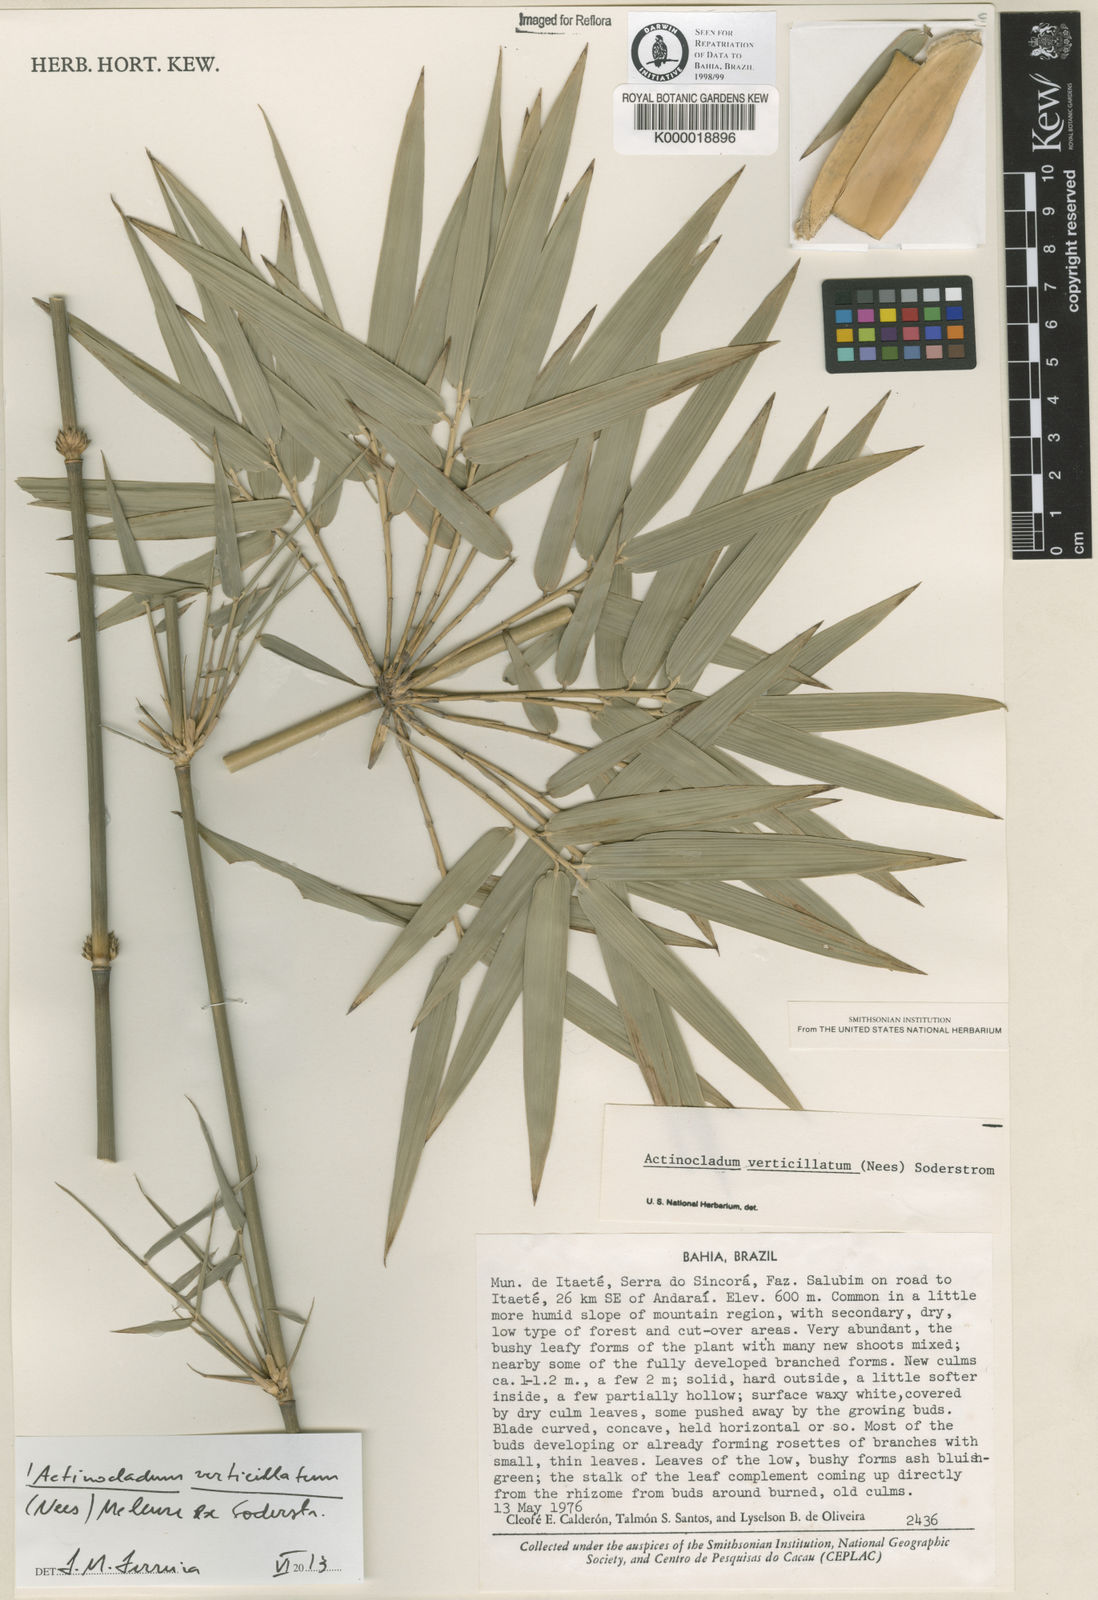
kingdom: Plantae
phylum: Tracheophyta
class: Liliopsida
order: Poales
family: Poaceae
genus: Actinocladum
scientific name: Actinocladum verticillatum
